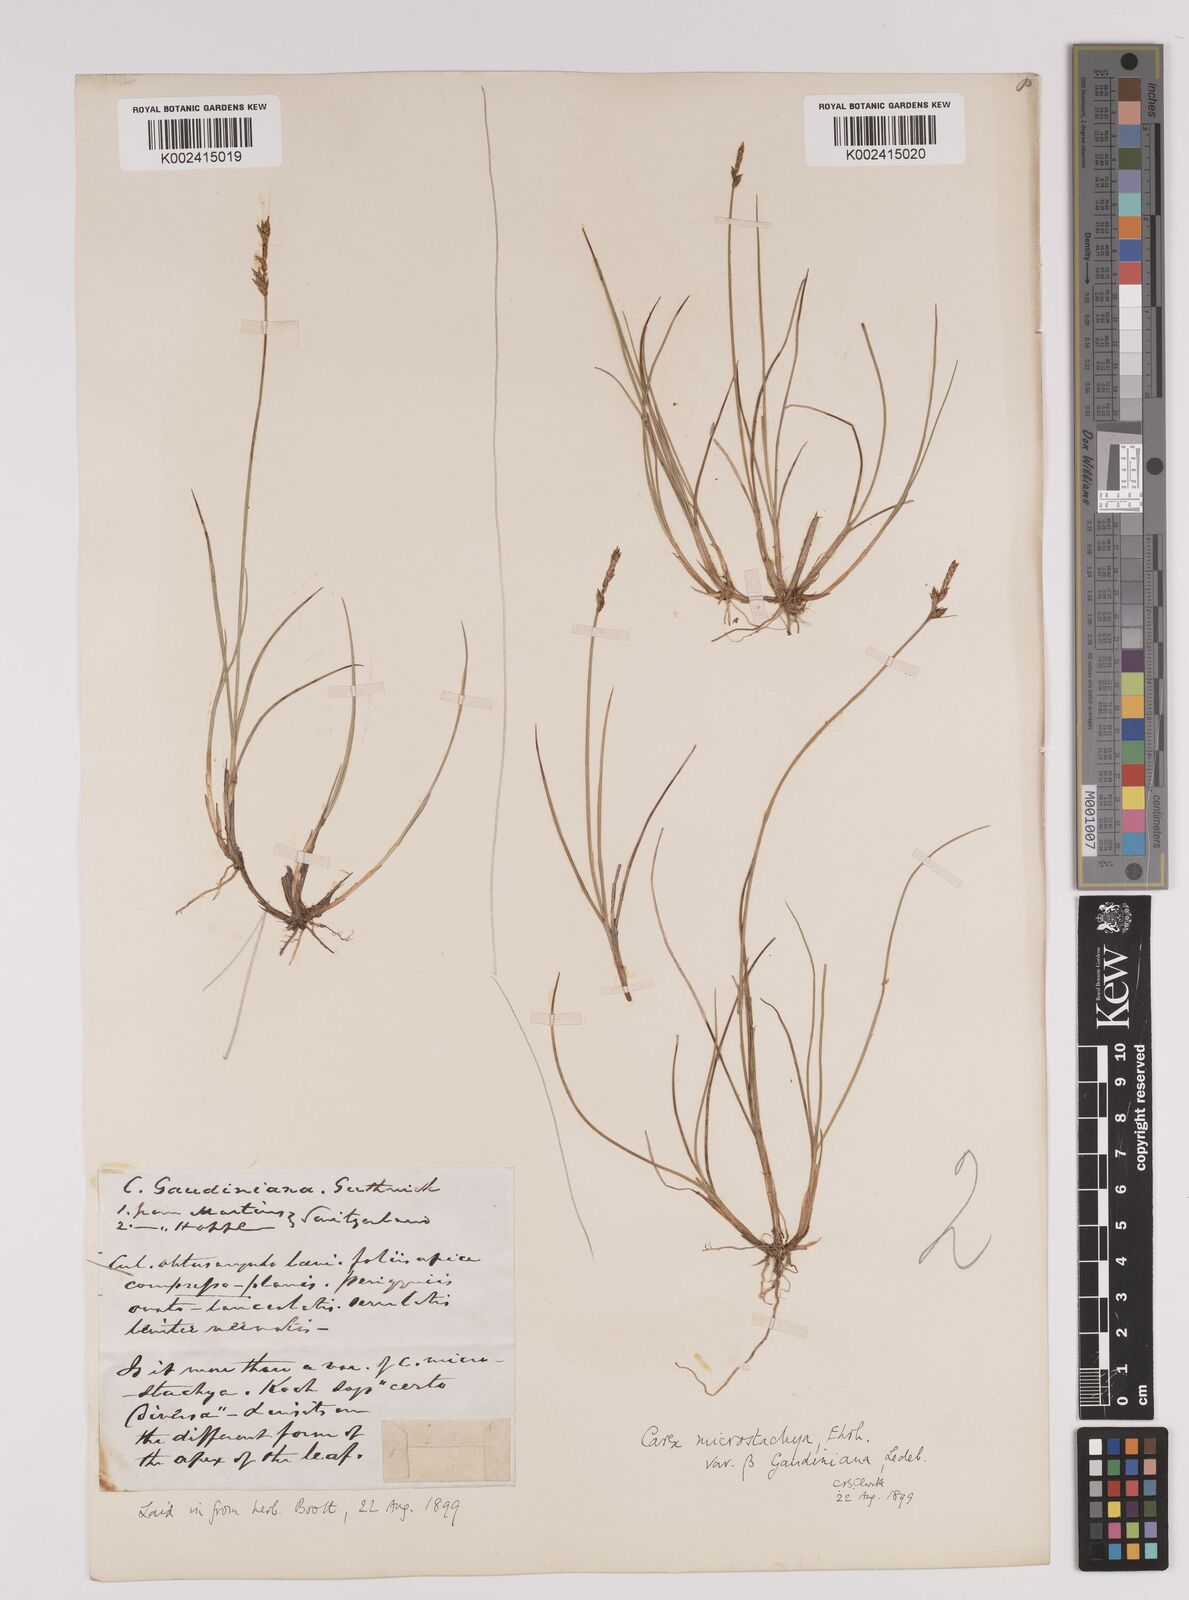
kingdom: Plantae
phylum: Tracheophyta
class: Liliopsida
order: Poales
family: Cyperaceae
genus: Carex
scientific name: Carex dioica
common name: Dioecious sedge
